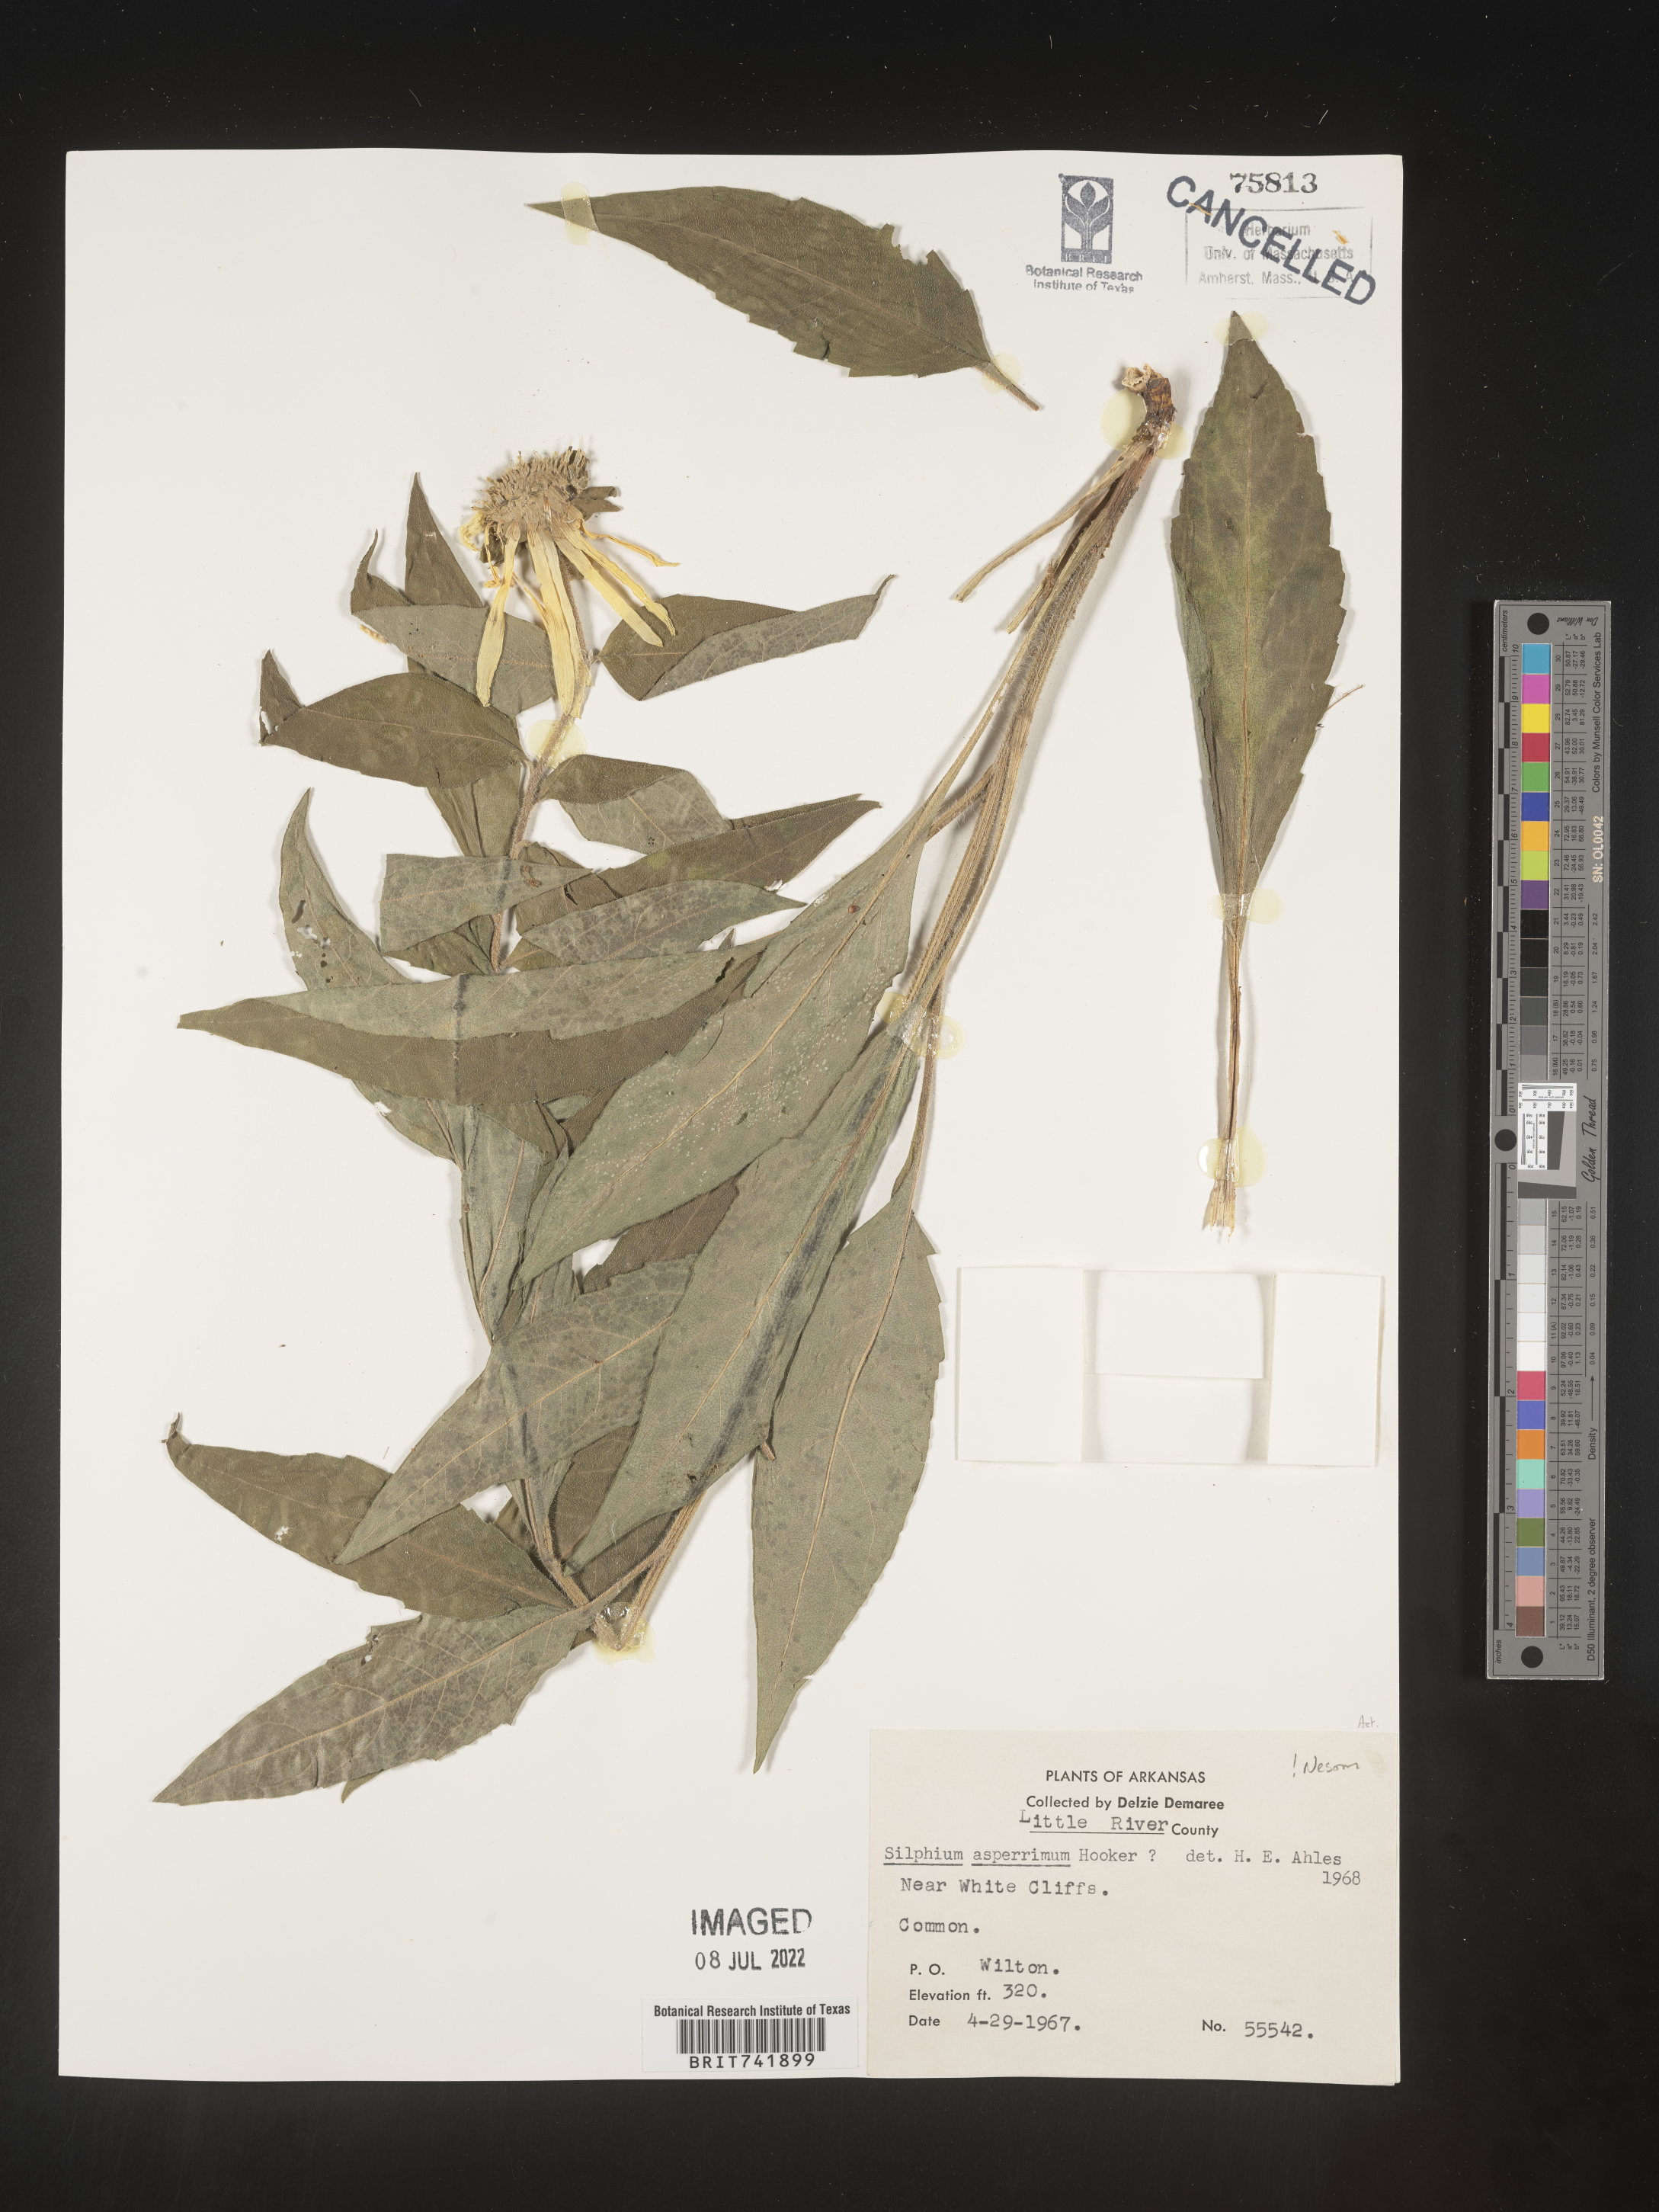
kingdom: Plantae
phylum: Tracheophyta
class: Magnoliopsida
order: Asterales
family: Asteraceae
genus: Silphium
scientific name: Silphium asperrimum
